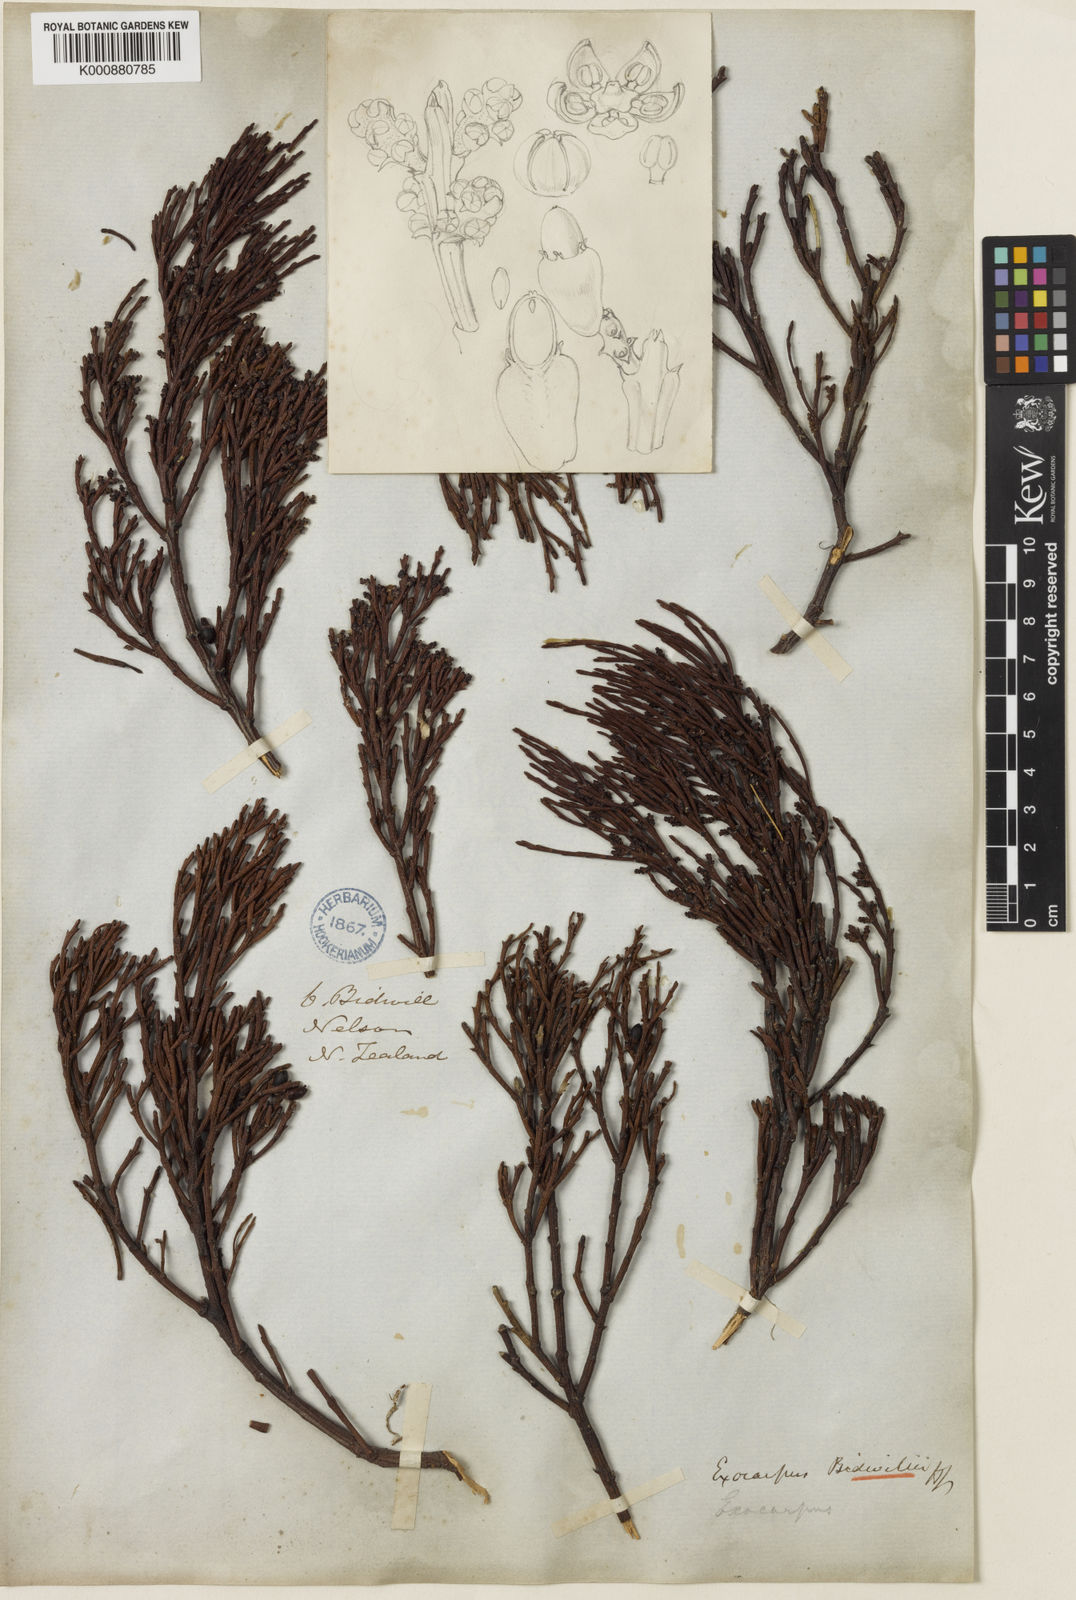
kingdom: Plantae
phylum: Tracheophyta
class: Magnoliopsida
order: Santalales
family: Santalaceae
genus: Exocarpos
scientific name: Exocarpos bidwillii
